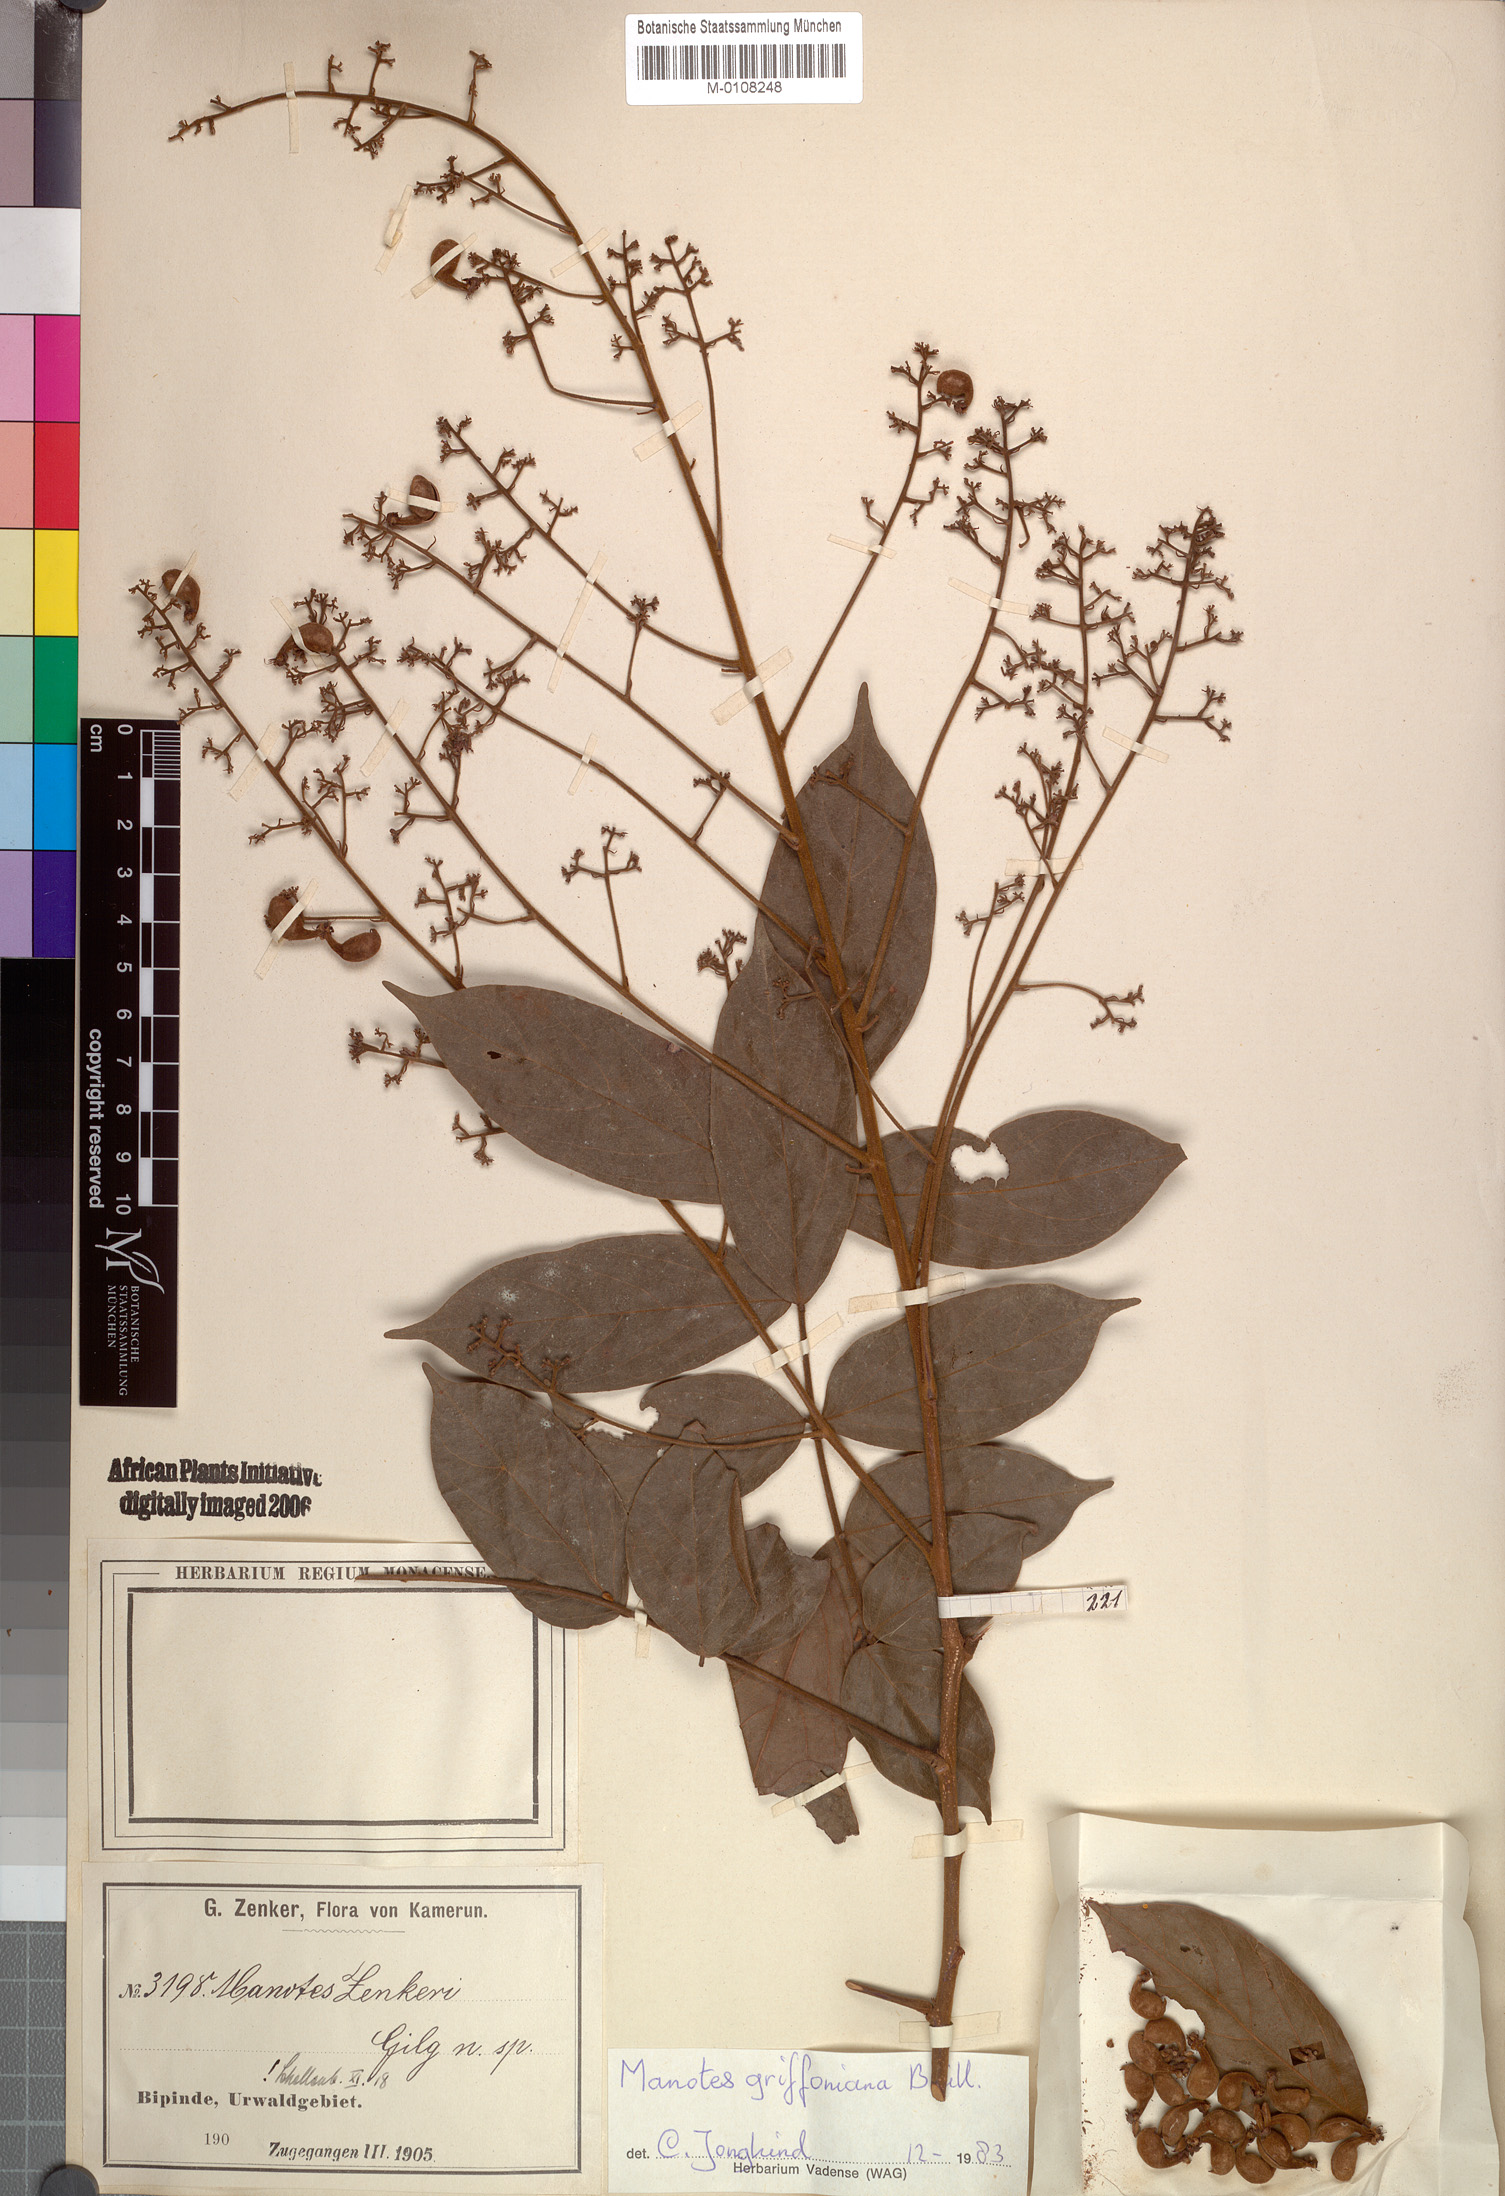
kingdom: Plantae
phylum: Tracheophyta
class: Magnoliopsida
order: Oxalidales
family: Connaraceae
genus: Manotes
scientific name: Manotes griffoniana
